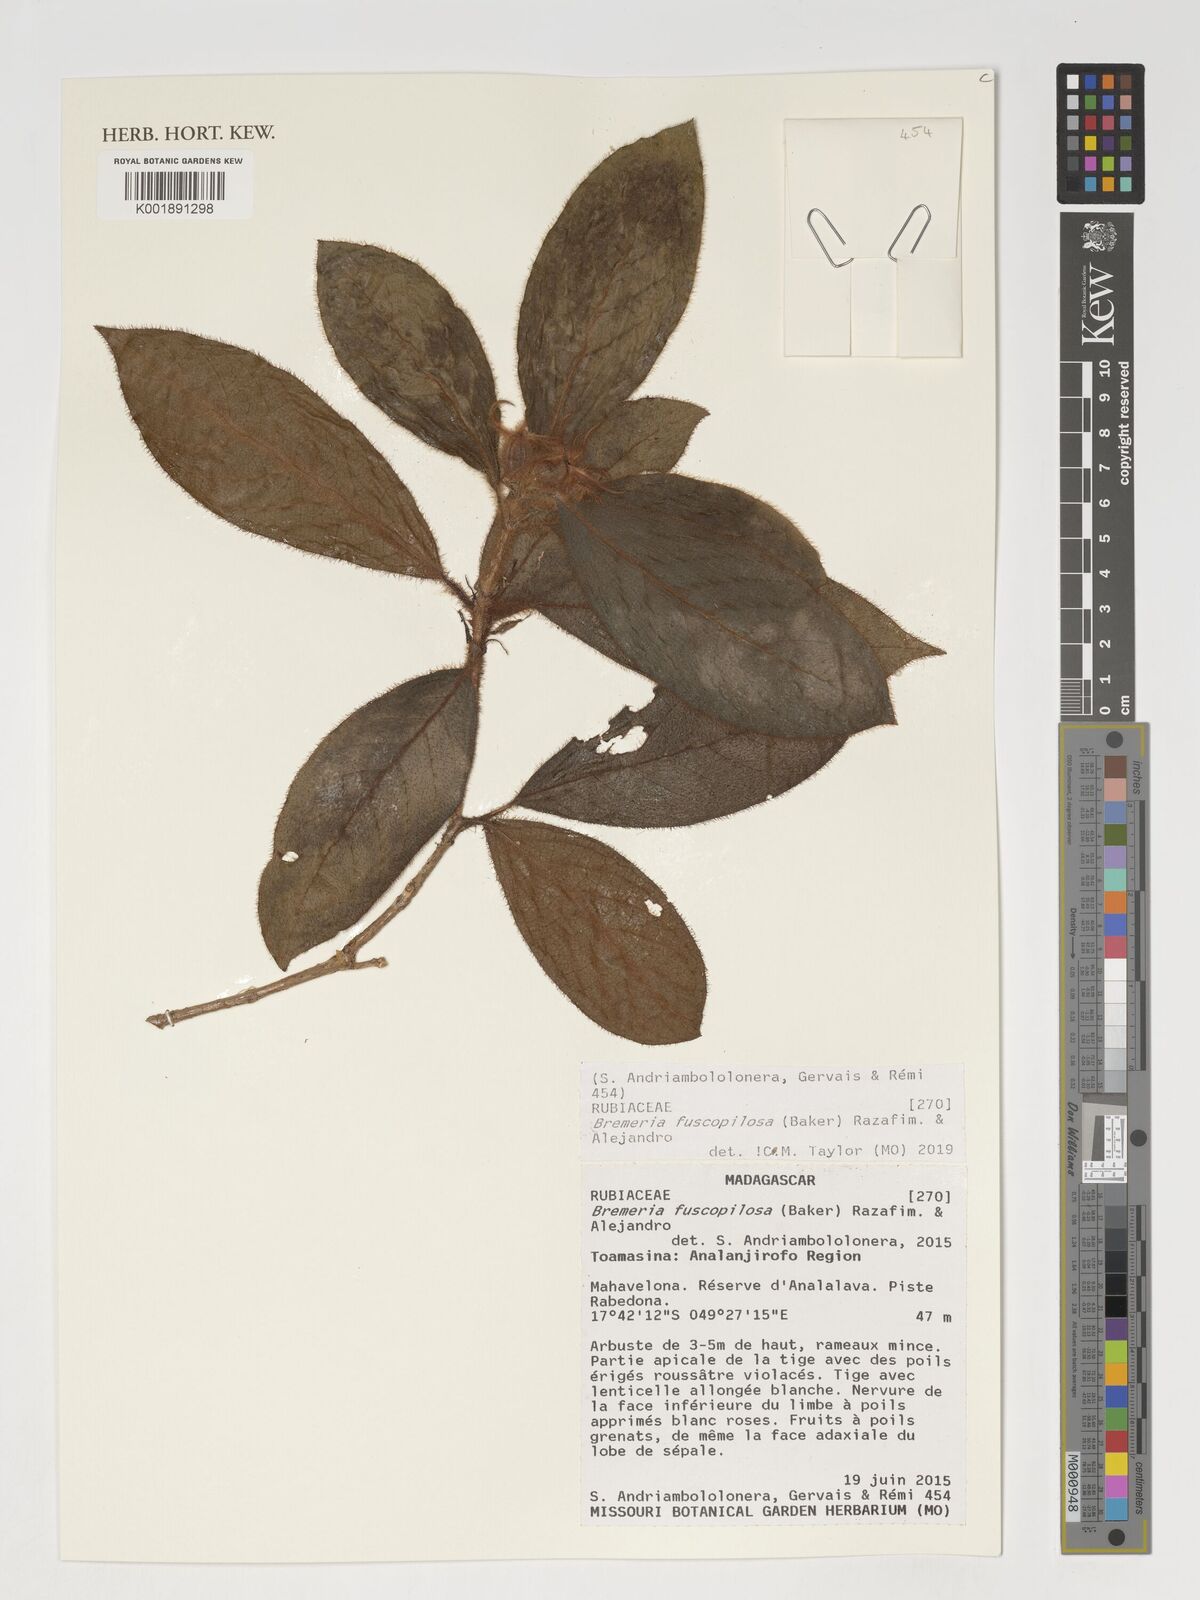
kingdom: Plantae
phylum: Tracheophyta
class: Magnoliopsida
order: Gentianales
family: Rubiaceae
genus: Bremeria
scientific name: Bremeria fuscopilosa
